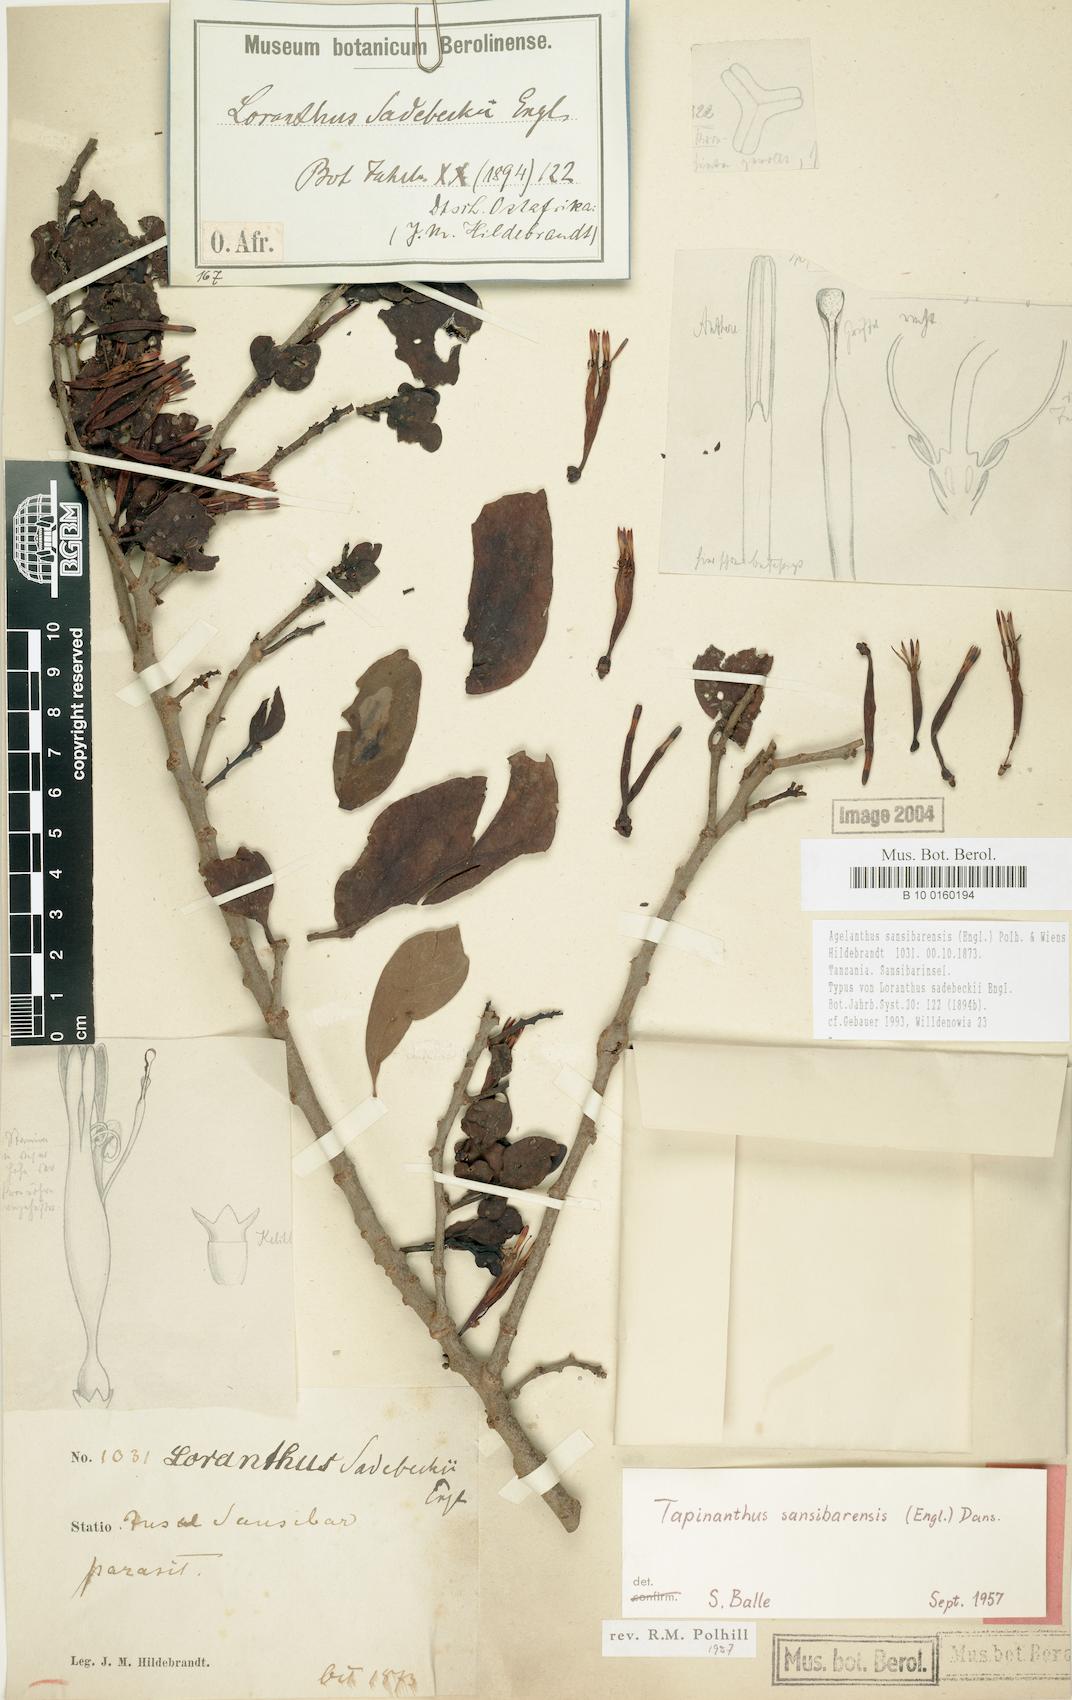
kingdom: Plantae
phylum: Tracheophyta
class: Magnoliopsida
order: Santalales
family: Loranthaceae
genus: Agelanthus
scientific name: Agelanthus sansibarensis
